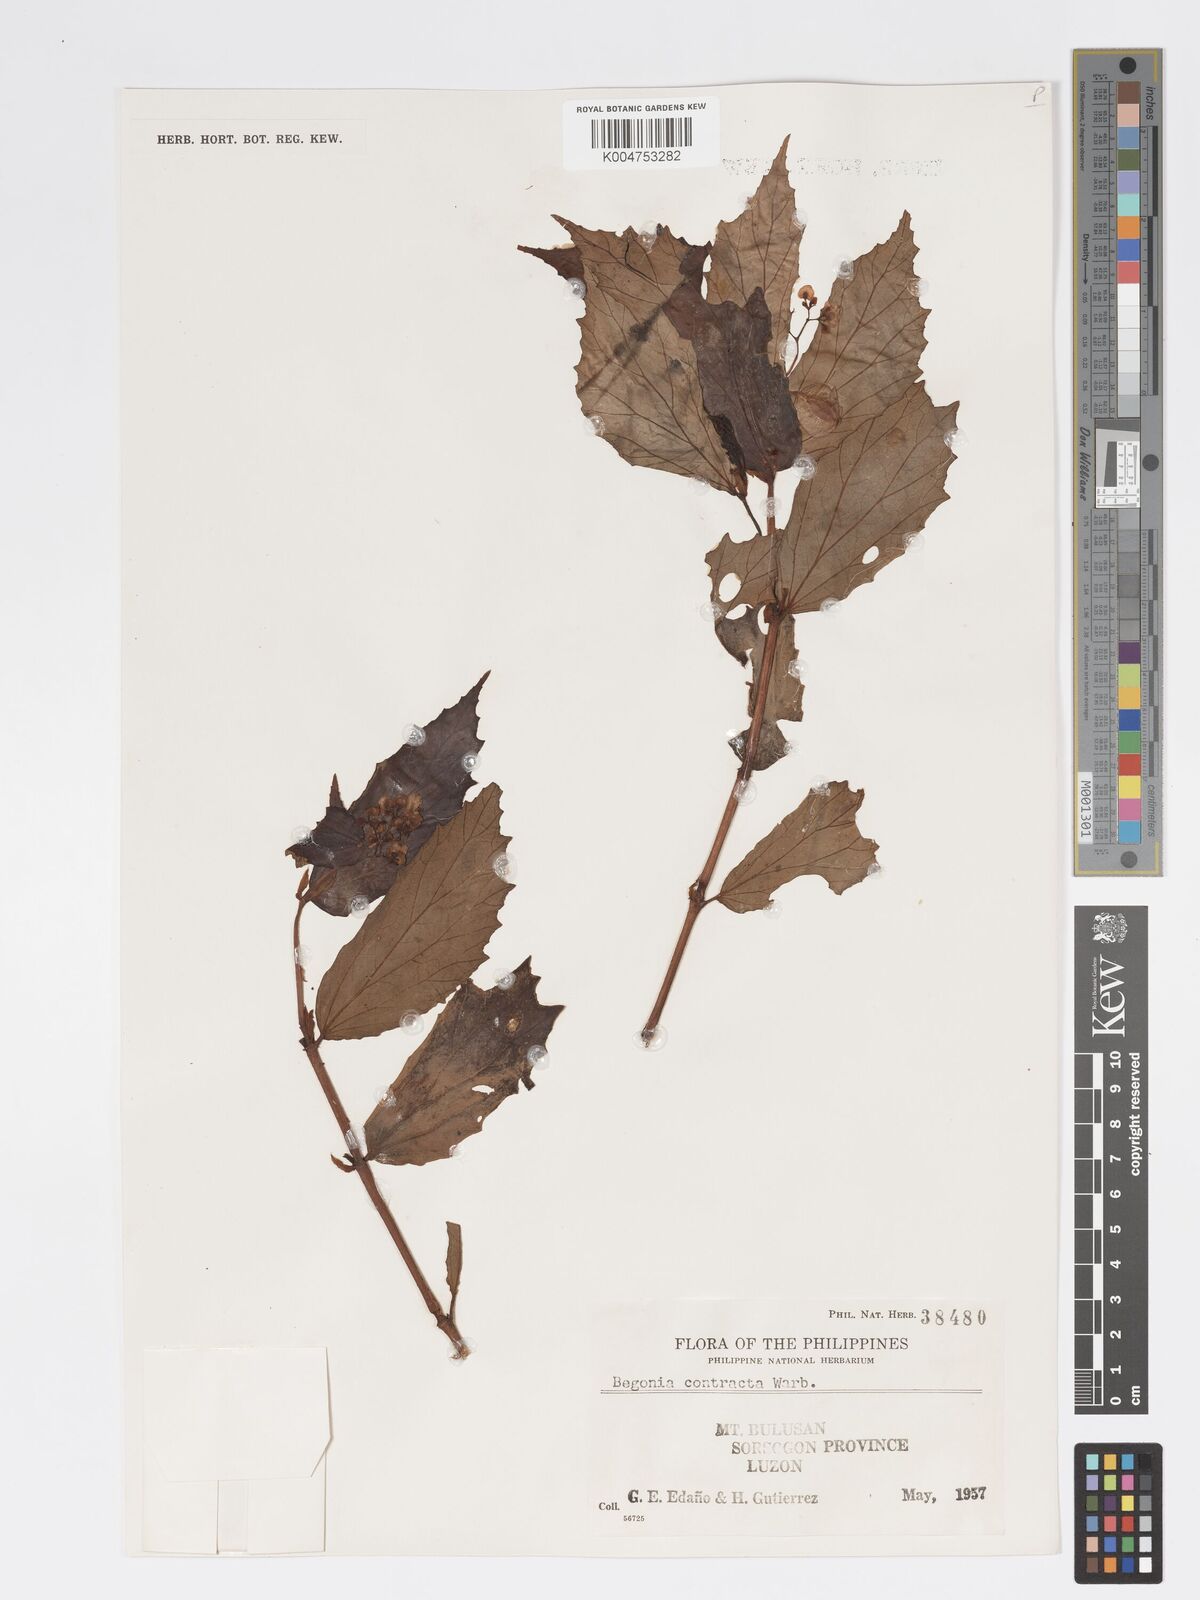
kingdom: Plantae
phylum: Tracheophyta
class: Magnoliopsida
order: Cucurbitales
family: Begoniaceae
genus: Begonia
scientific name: Begonia contracta
